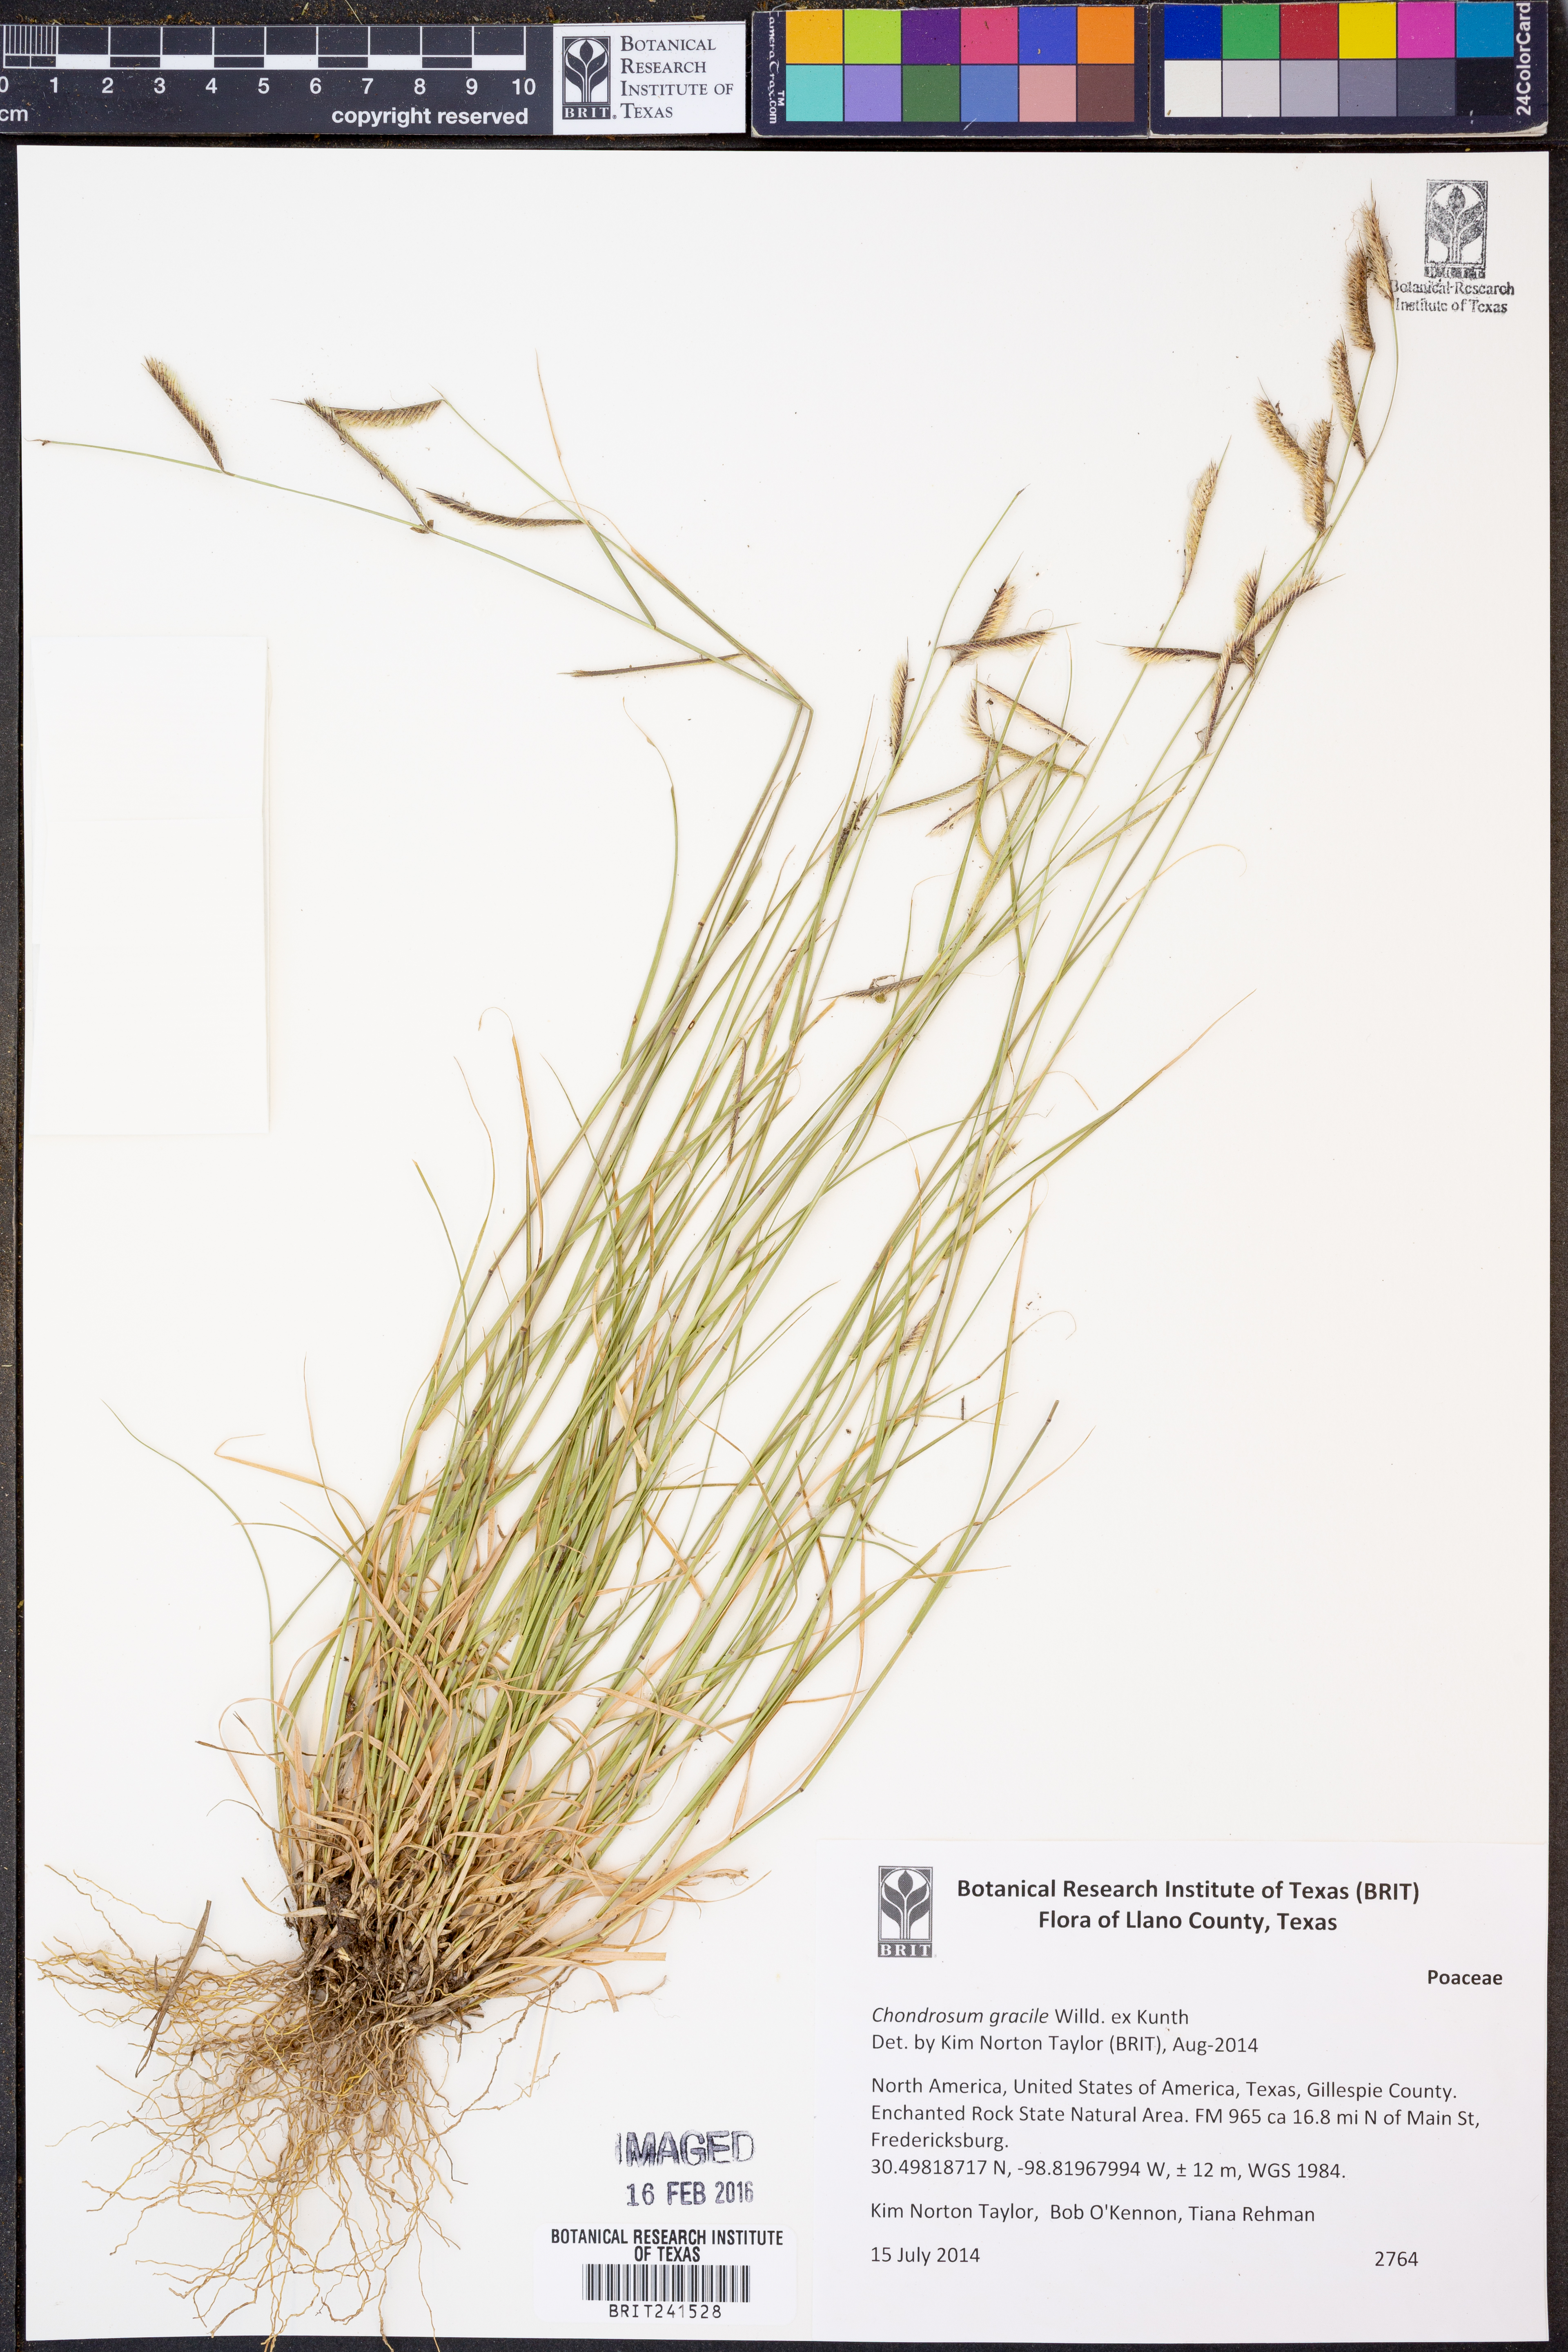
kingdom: Plantae
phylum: Tracheophyta
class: Liliopsida
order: Poales
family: Poaceae
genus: Bouteloua
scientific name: Bouteloua gracilis
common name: Blue grama
